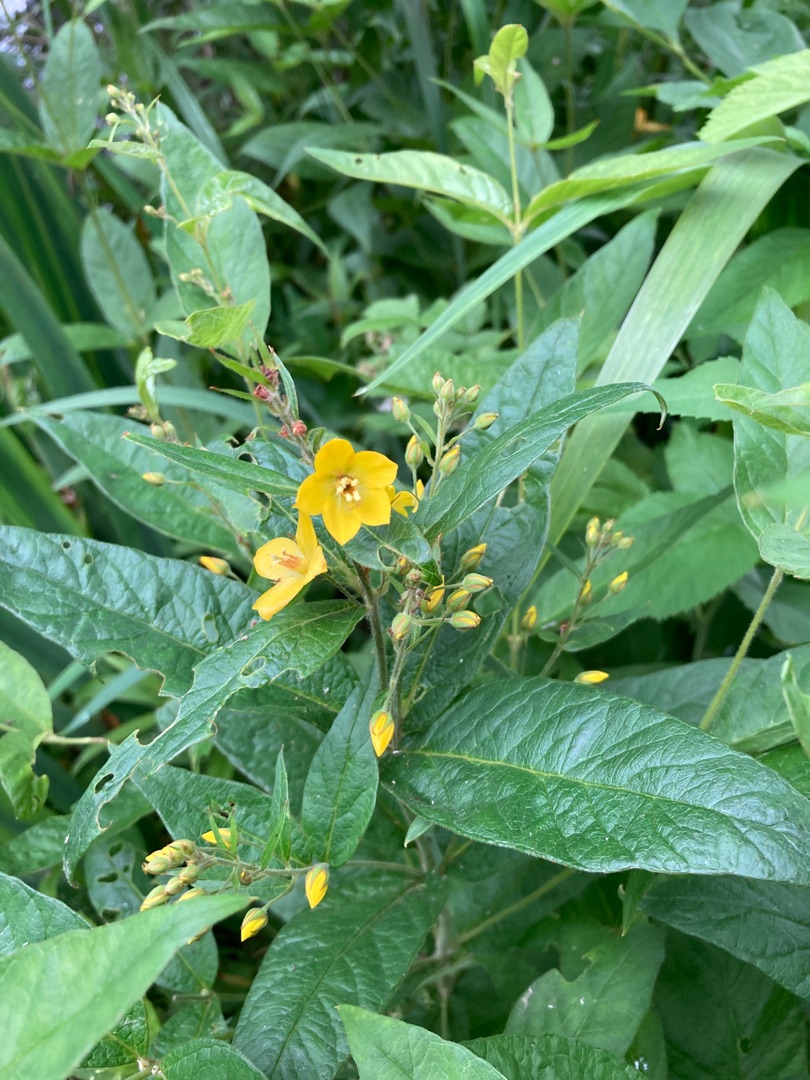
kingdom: Plantae
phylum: Tracheophyta
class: Magnoliopsida
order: Ericales
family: Primulaceae
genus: Lysimachia
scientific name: Lysimachia vulgaris
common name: Almindelig fredløs
